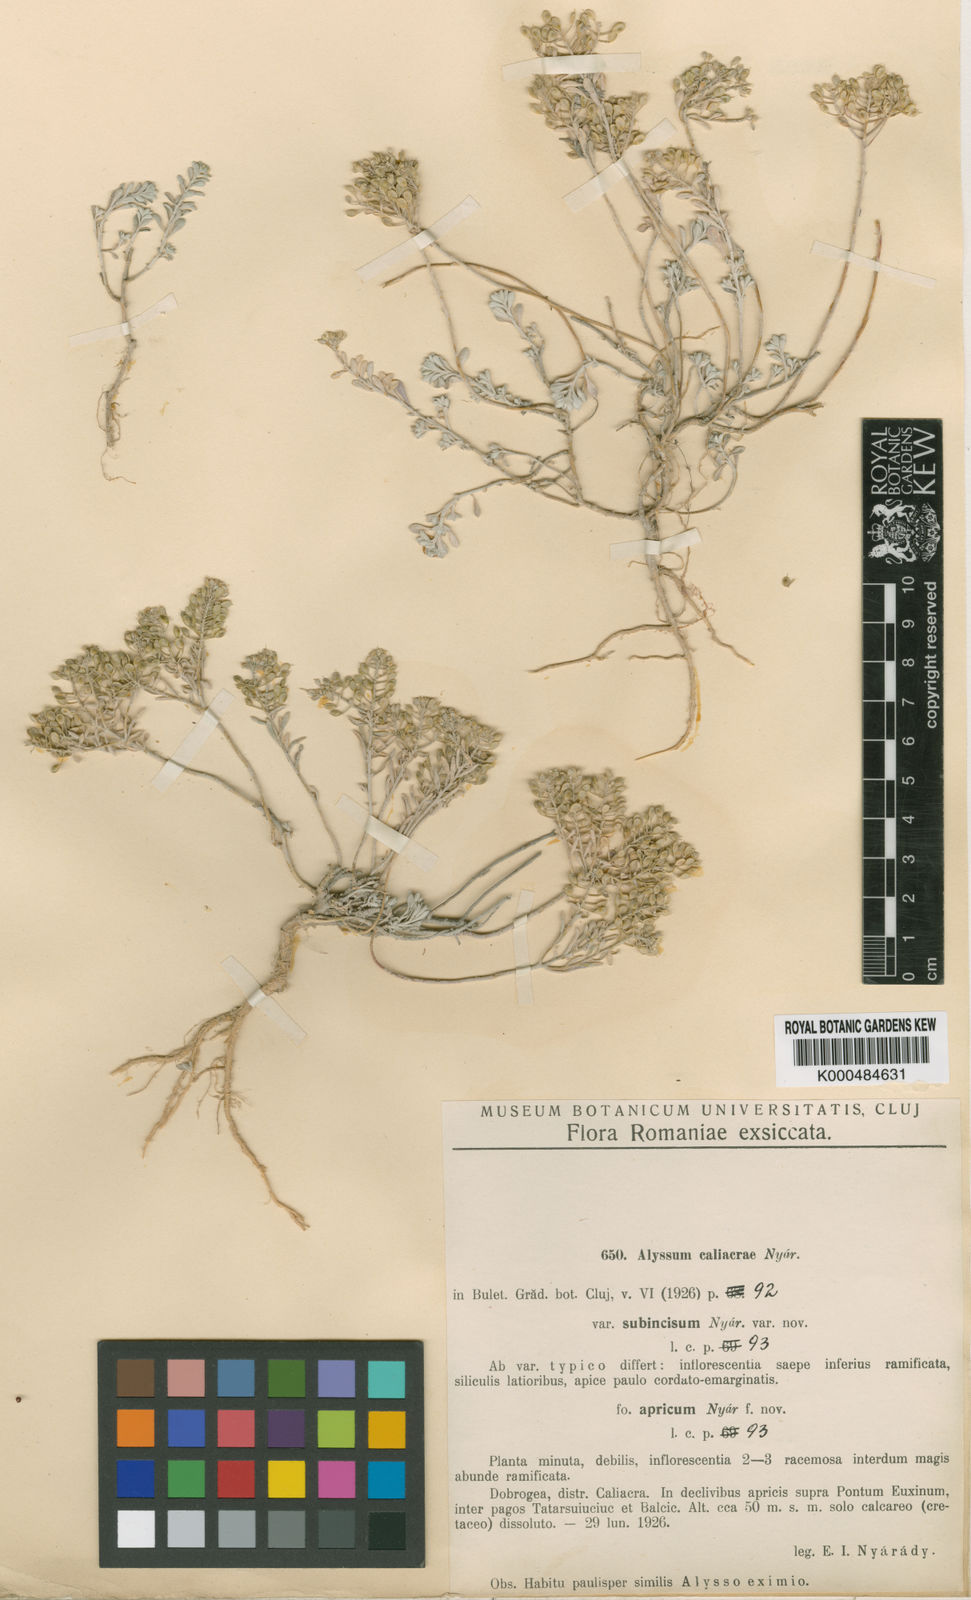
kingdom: Plantae
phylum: Tracheophyta
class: Magnoliopsida
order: Brassicales
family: Brassicaceae
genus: Odontarrhena
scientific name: Odontarrhena caliacrae
